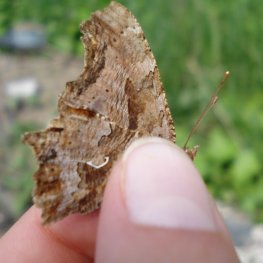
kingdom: Animalia
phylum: Arthropoda
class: Insecta
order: Lepidoptera
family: Nymphalidae
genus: Polygonia
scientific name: Polygonia comma
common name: Eastern Comma
